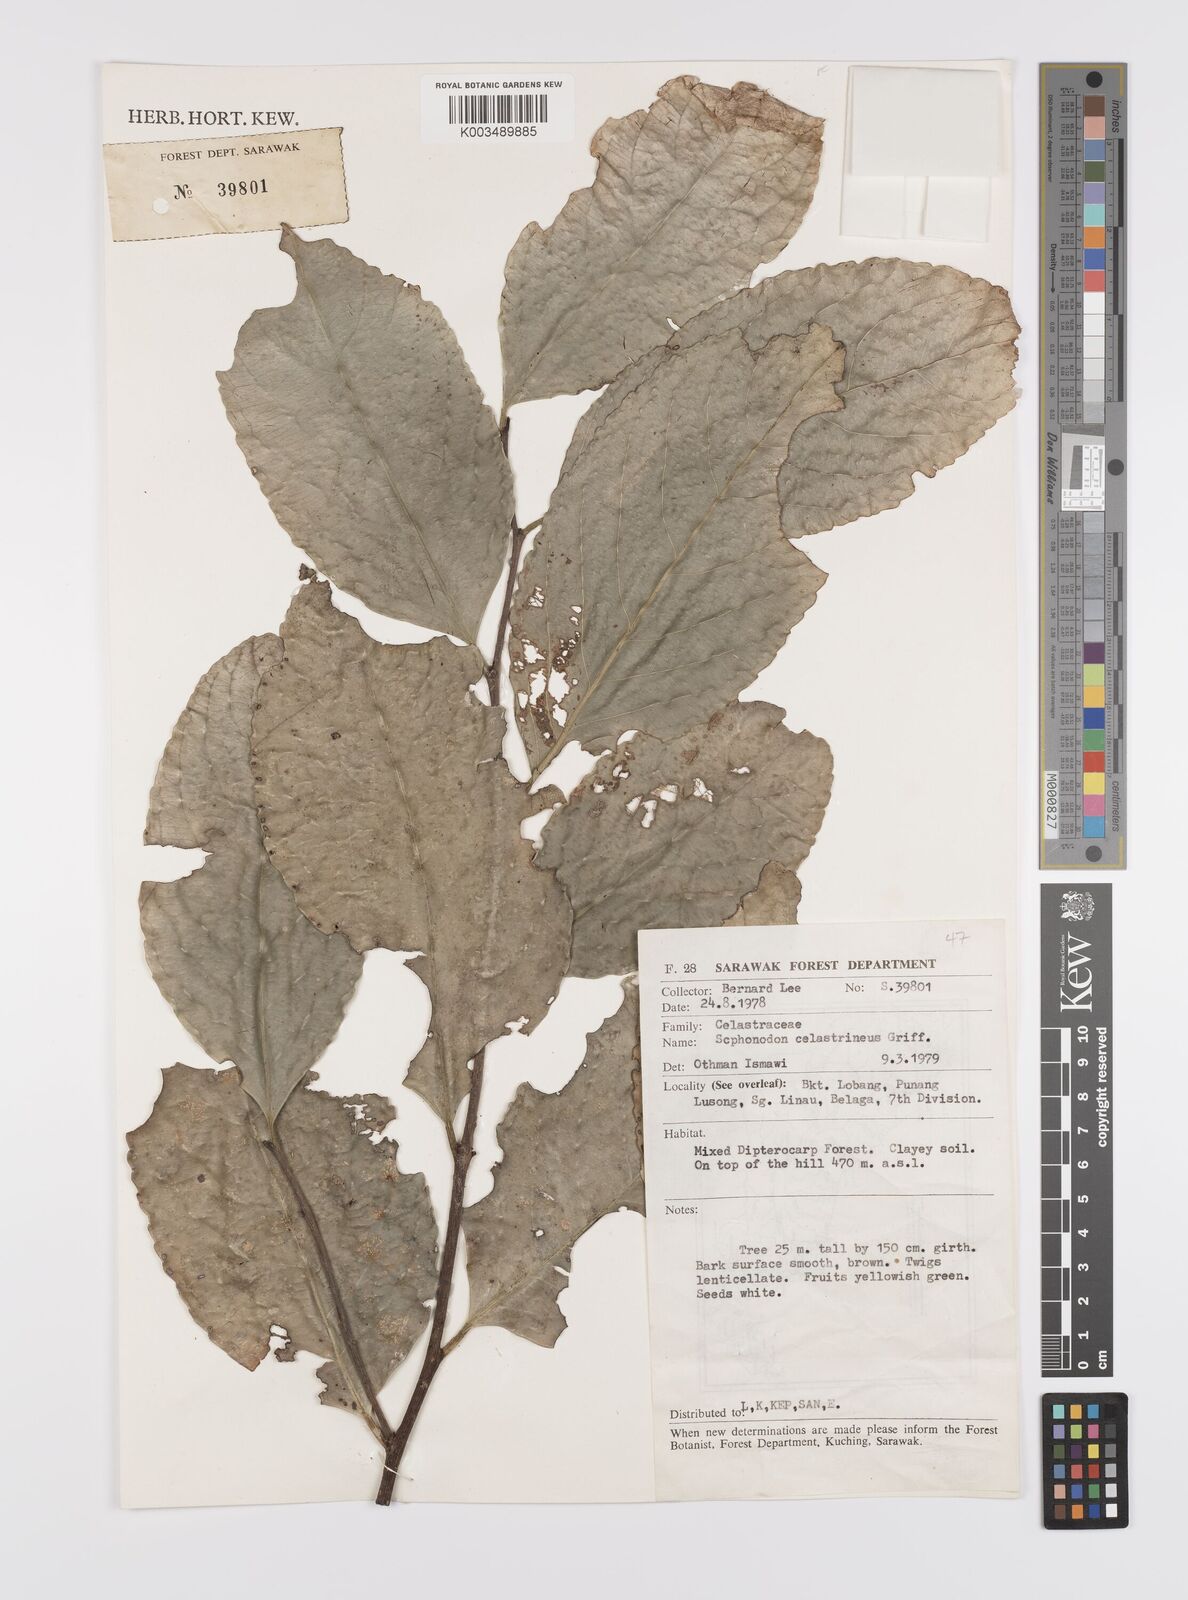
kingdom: Plantae
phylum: Tracheophyta
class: Magnoliopsida
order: Celastrales
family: Celastraceae
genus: Siphonodon
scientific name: Siphonodon celastrineus
